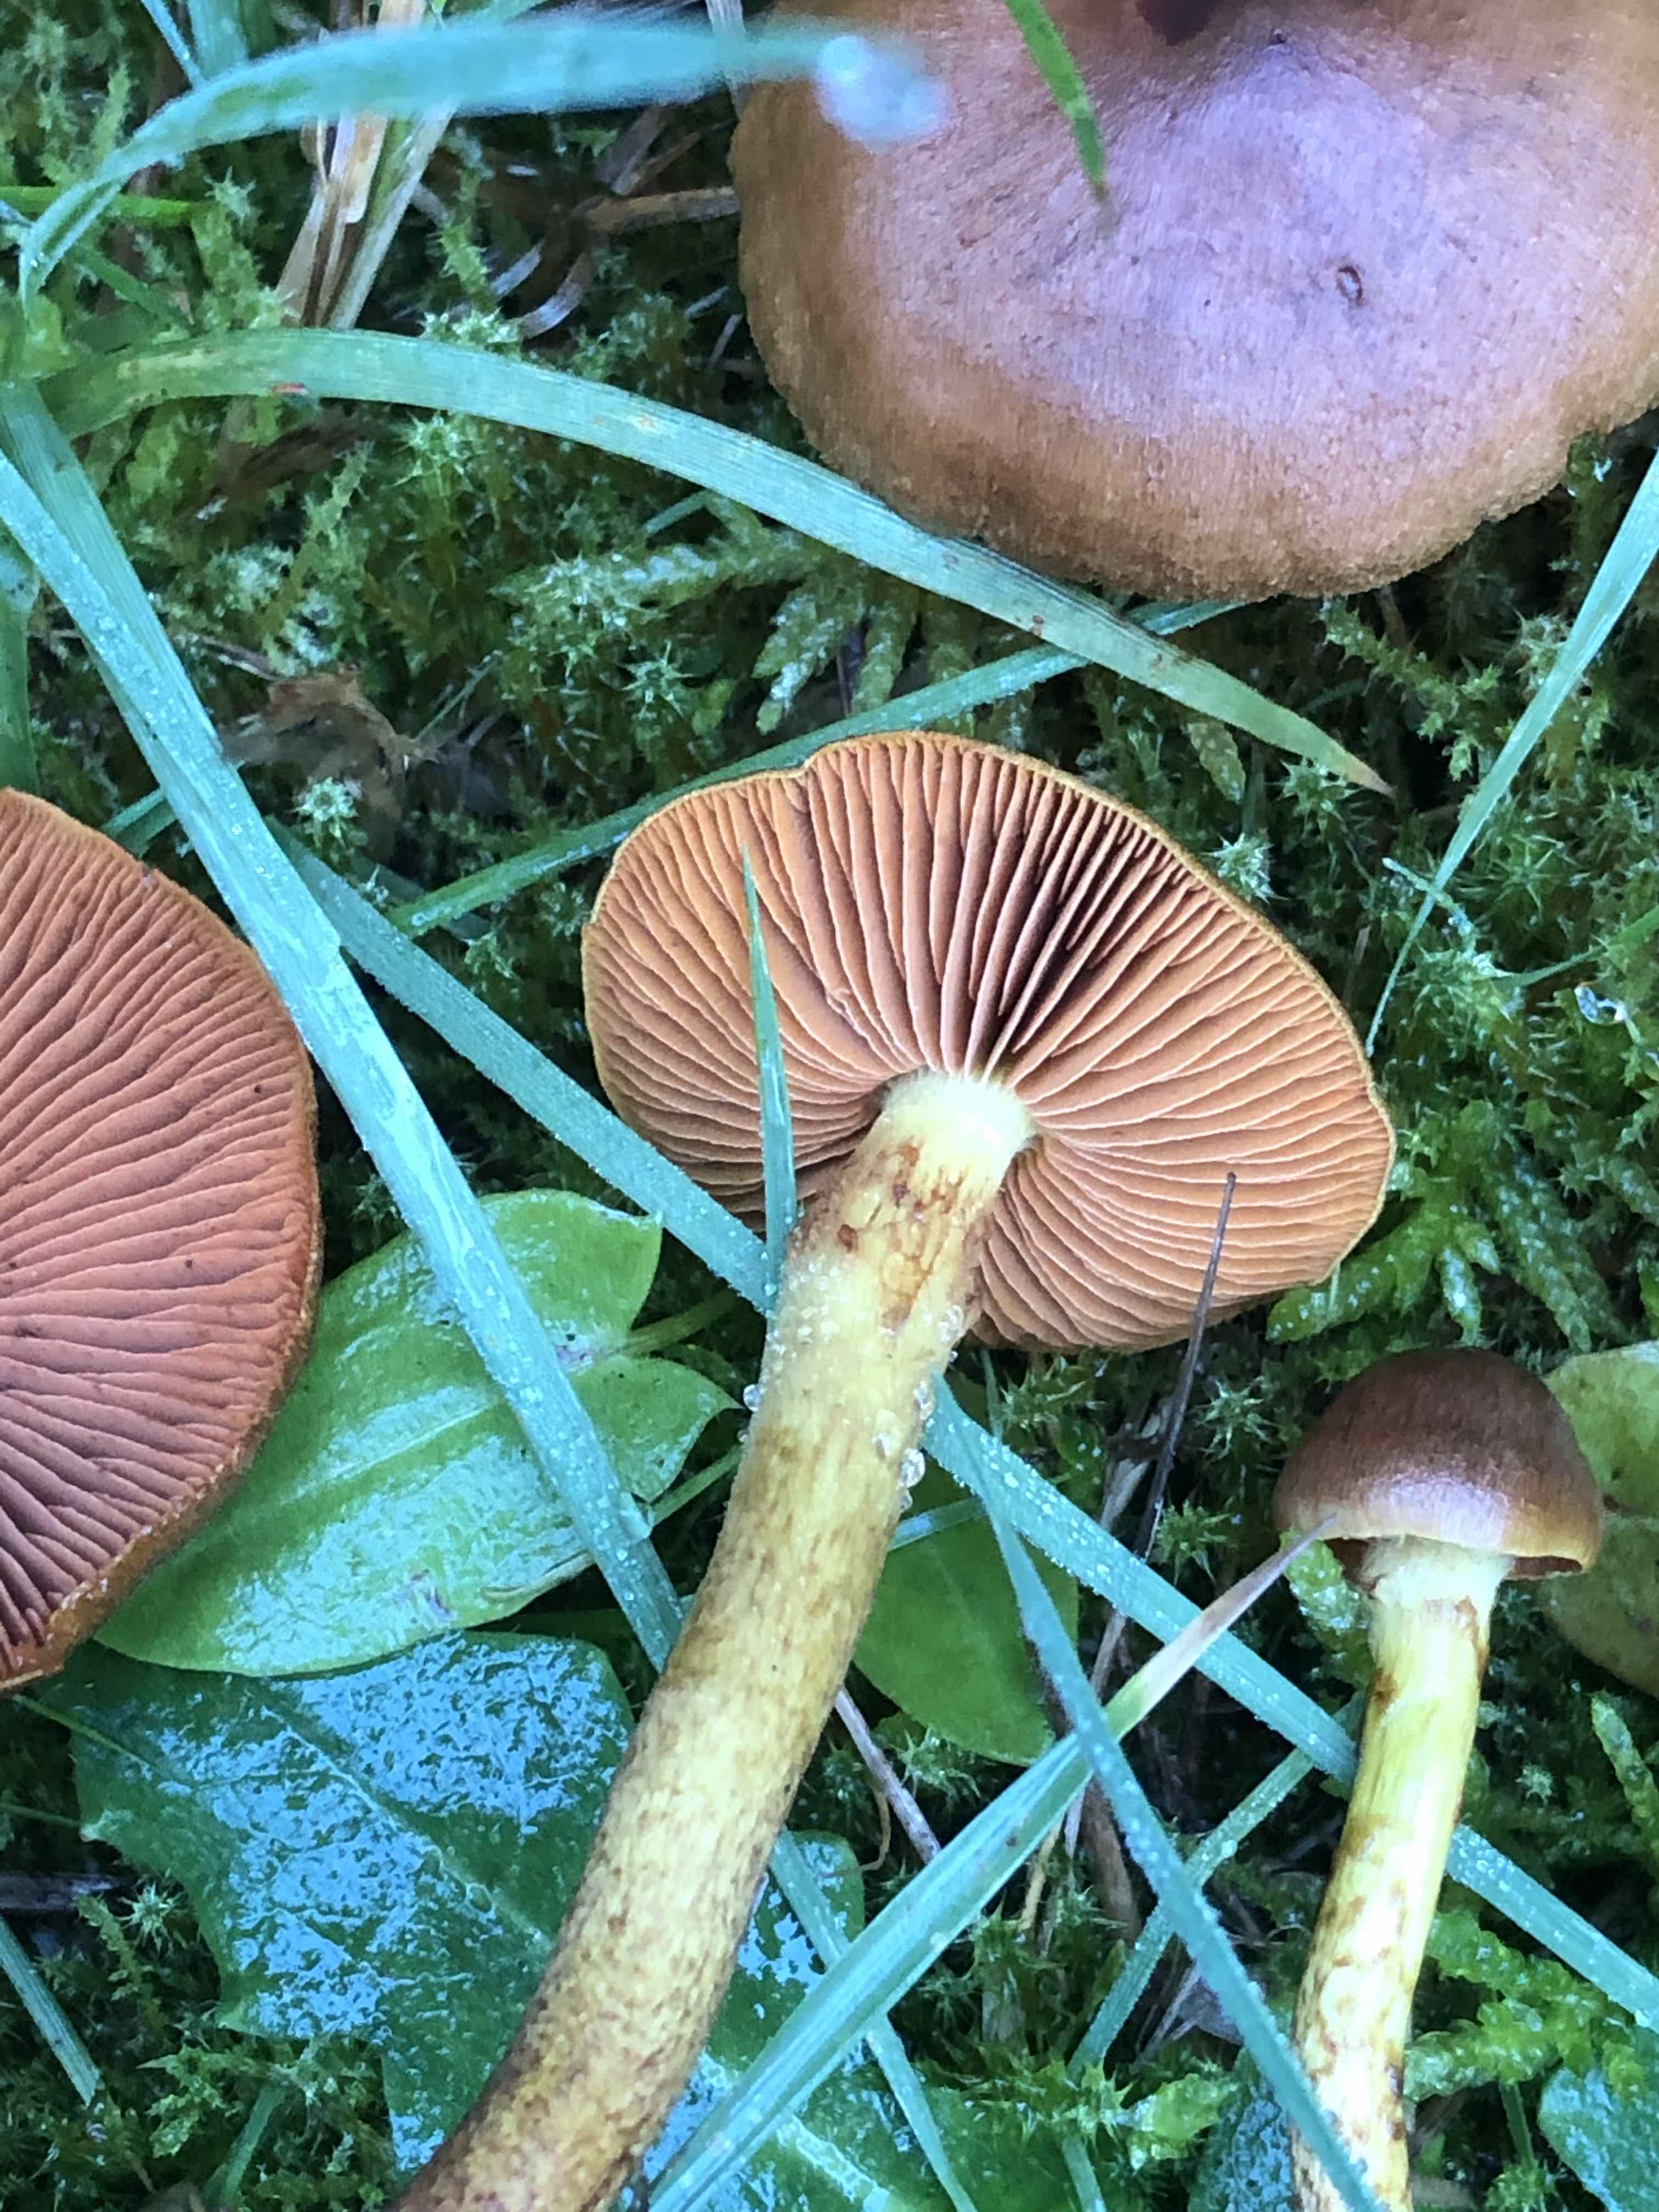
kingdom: Fungi
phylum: Basidiomycota
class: Agaricomycetes
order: Agaricales
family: Cortinariaceae
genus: Cortinarius
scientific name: Cortinarius malicorius
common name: grønkødet slørhat
